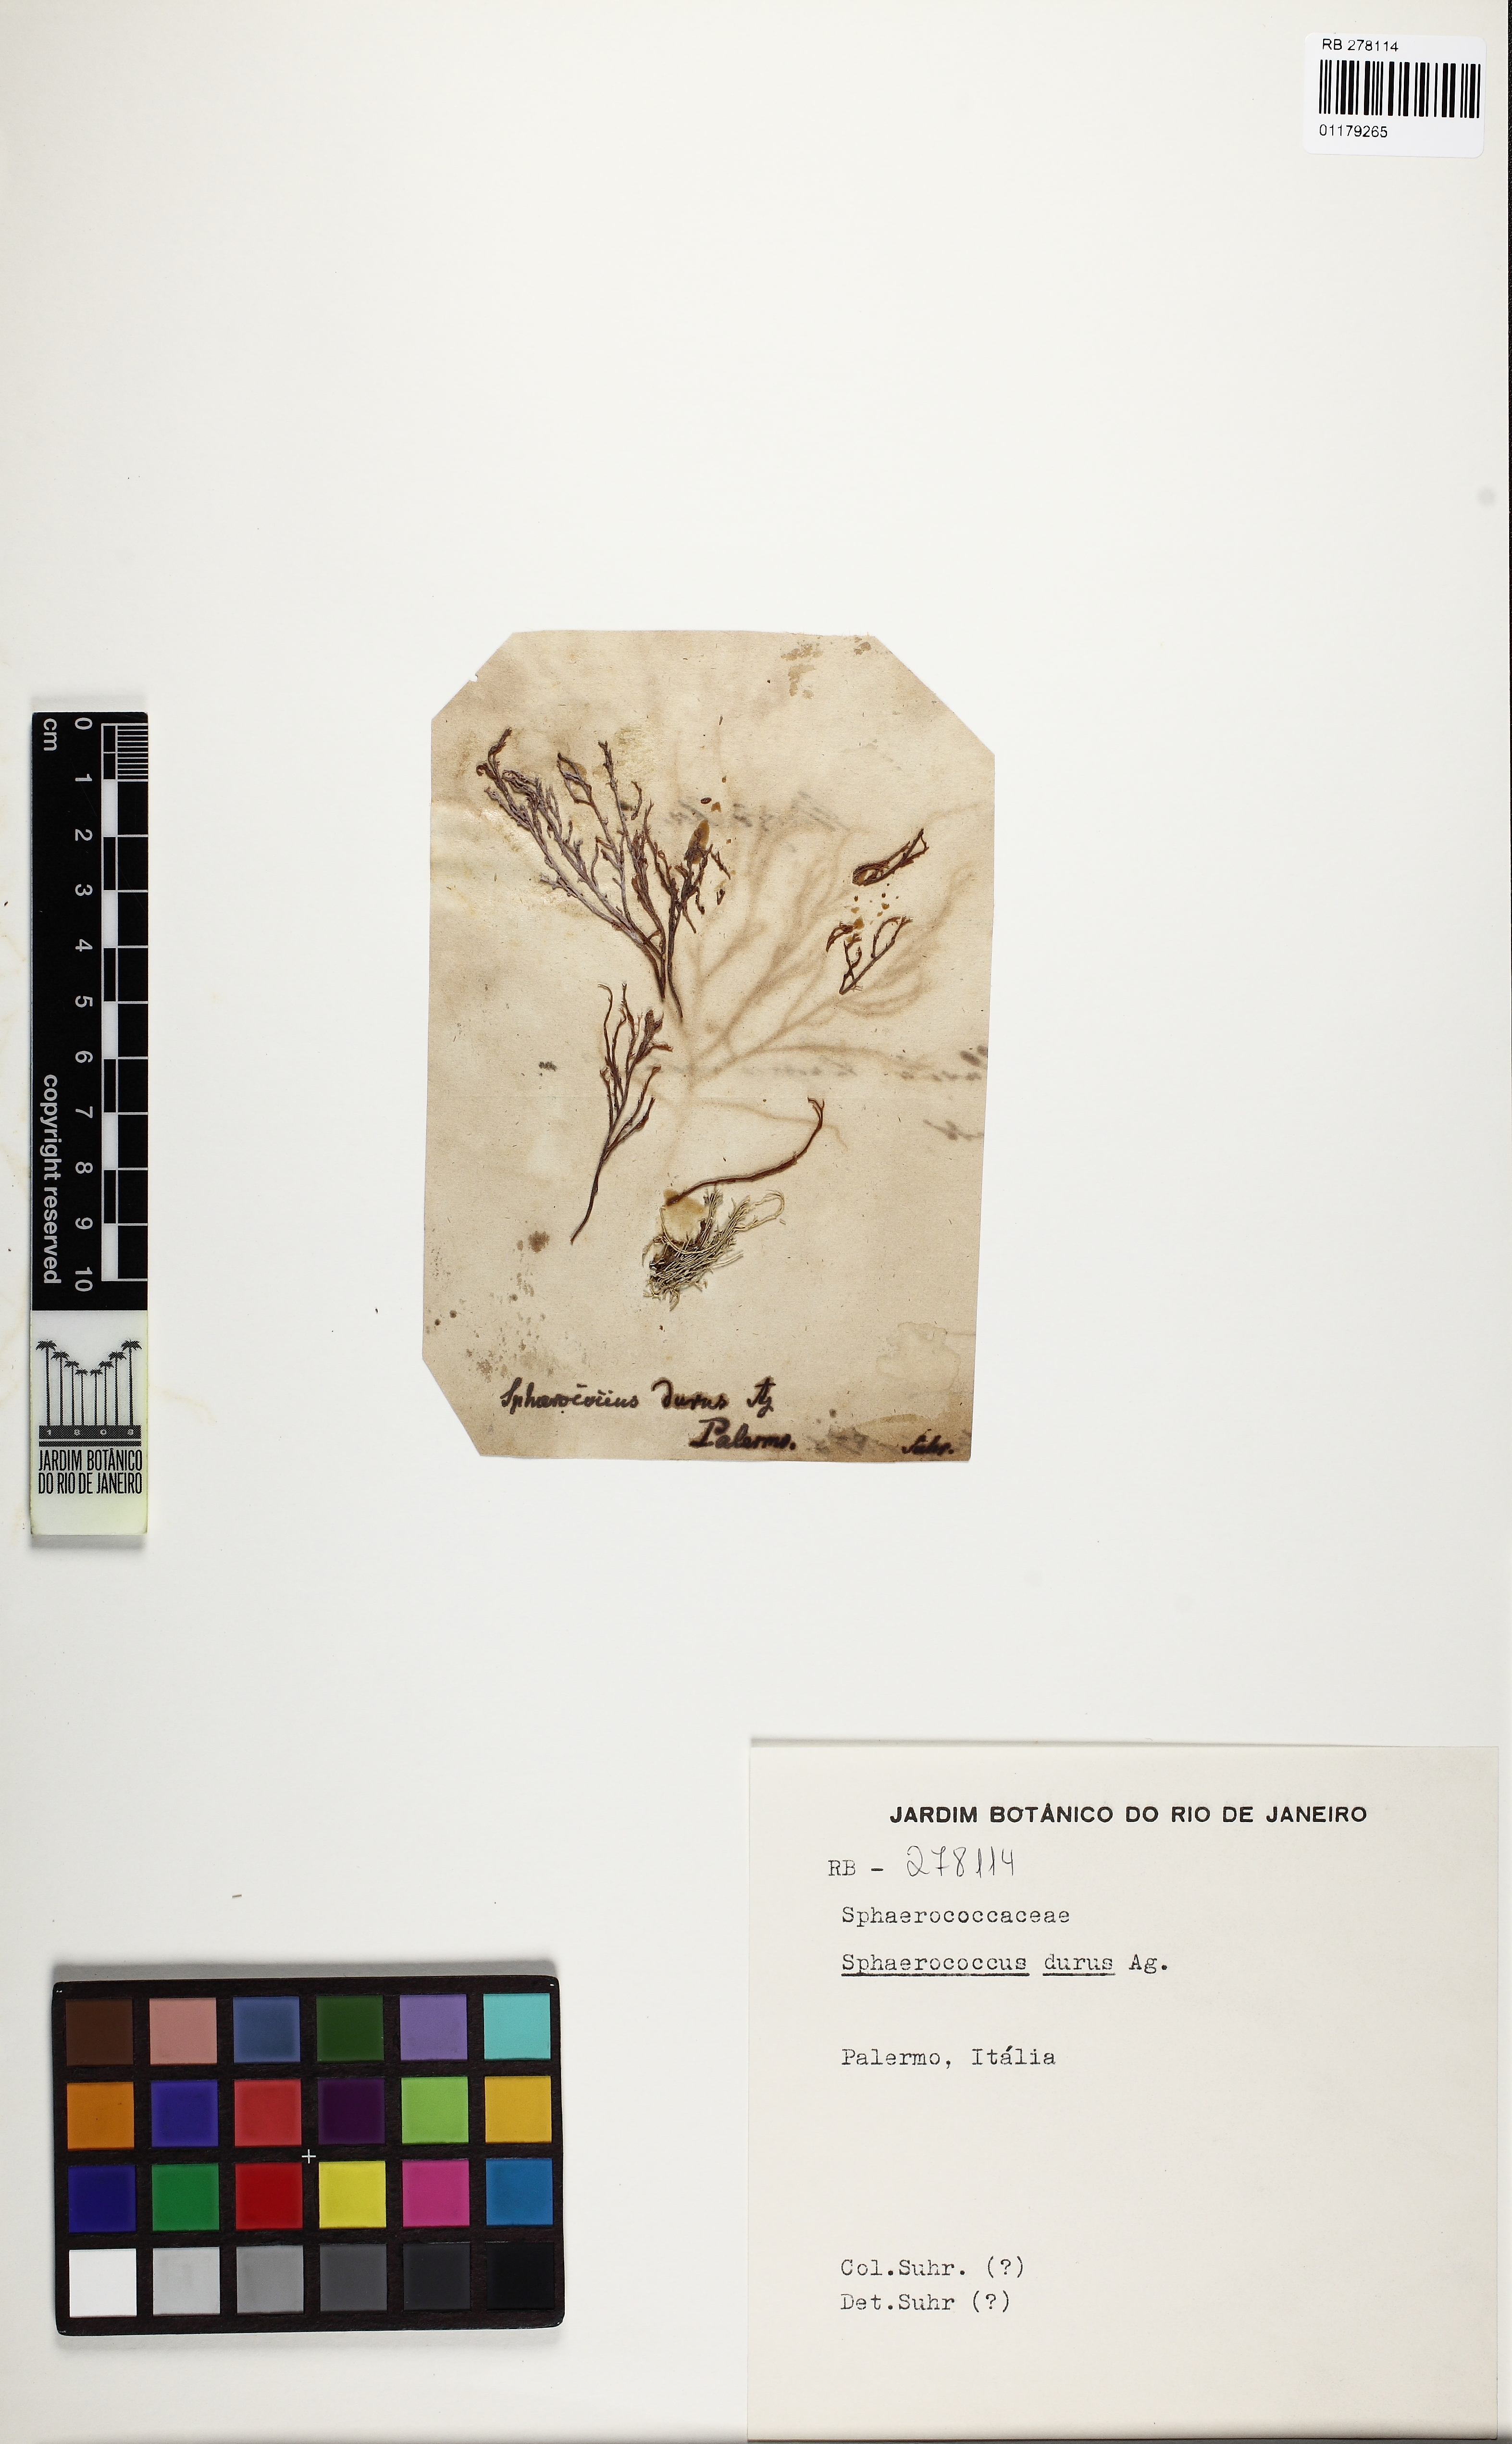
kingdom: Plantae
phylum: Rhodophyta
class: Florideophyceae
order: Gracilariales
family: Gracilariaceae
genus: Gracilaria
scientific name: Gracilaria dura
